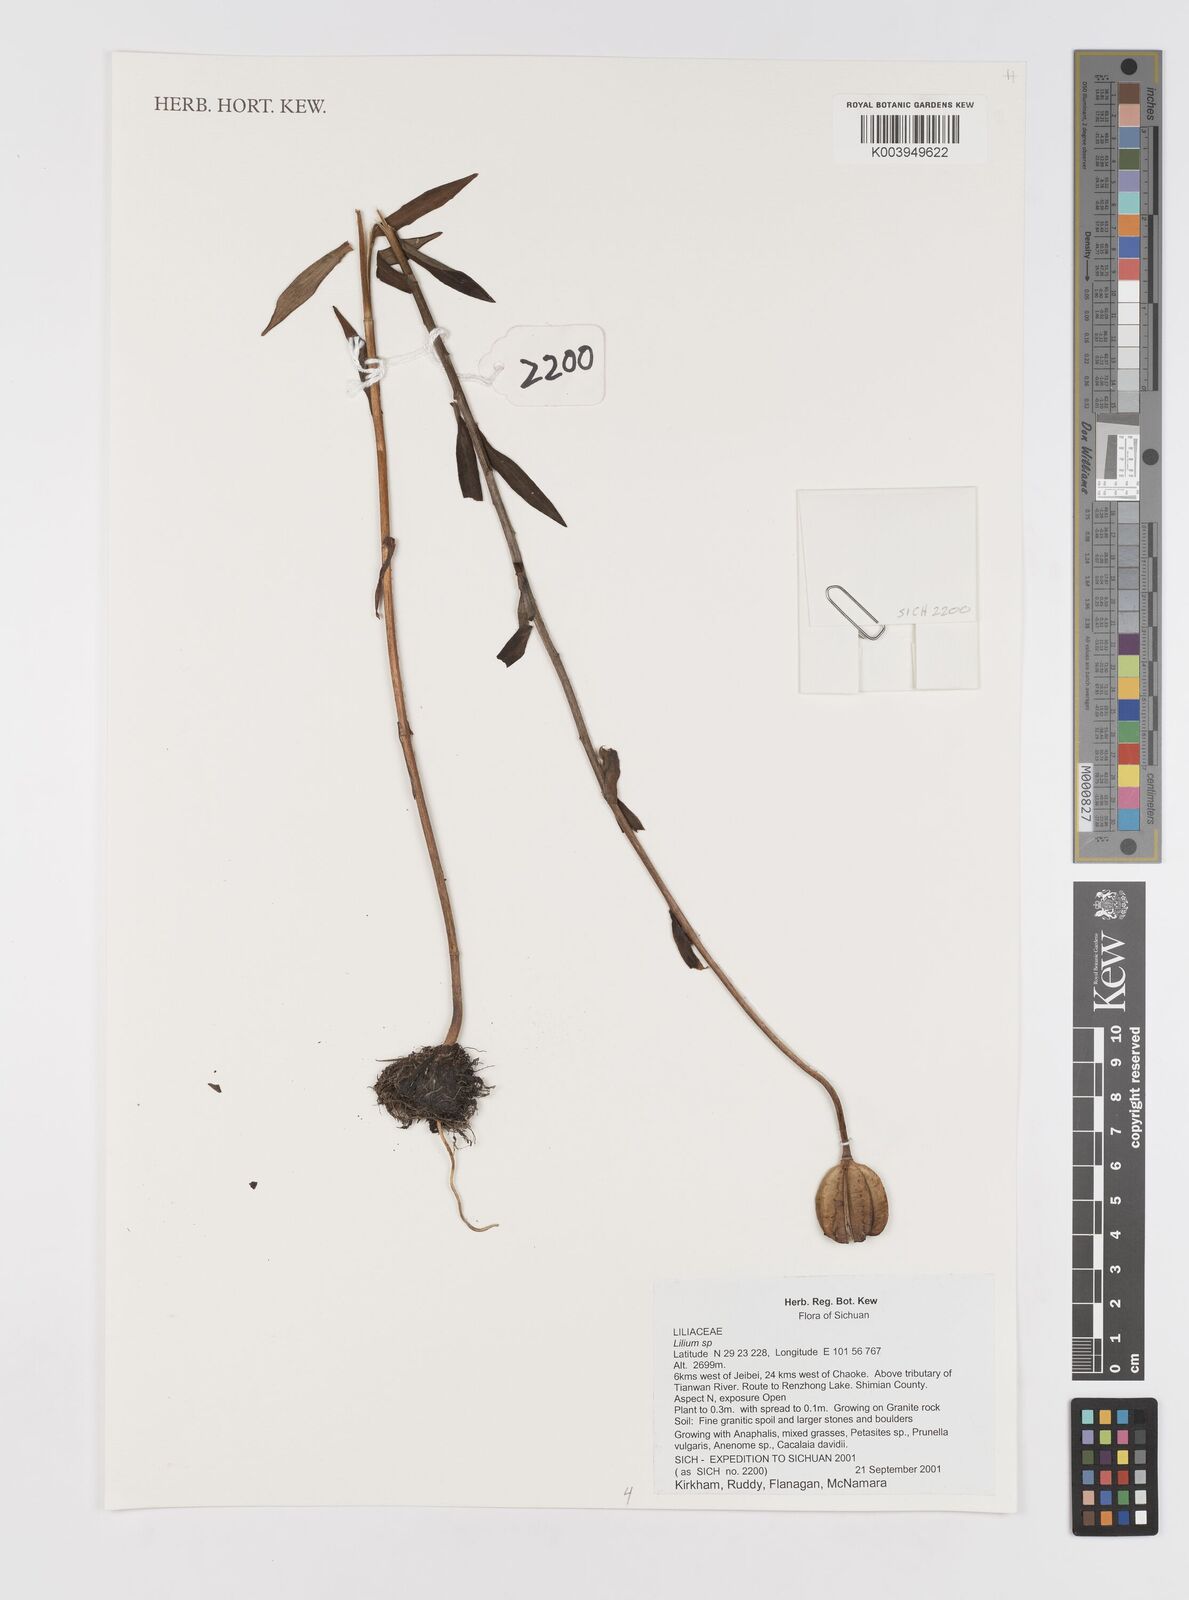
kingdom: Plantae
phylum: Tracheophyta
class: Liliopsida
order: Liliales
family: Liliaceae
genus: Lilium
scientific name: Lilium
